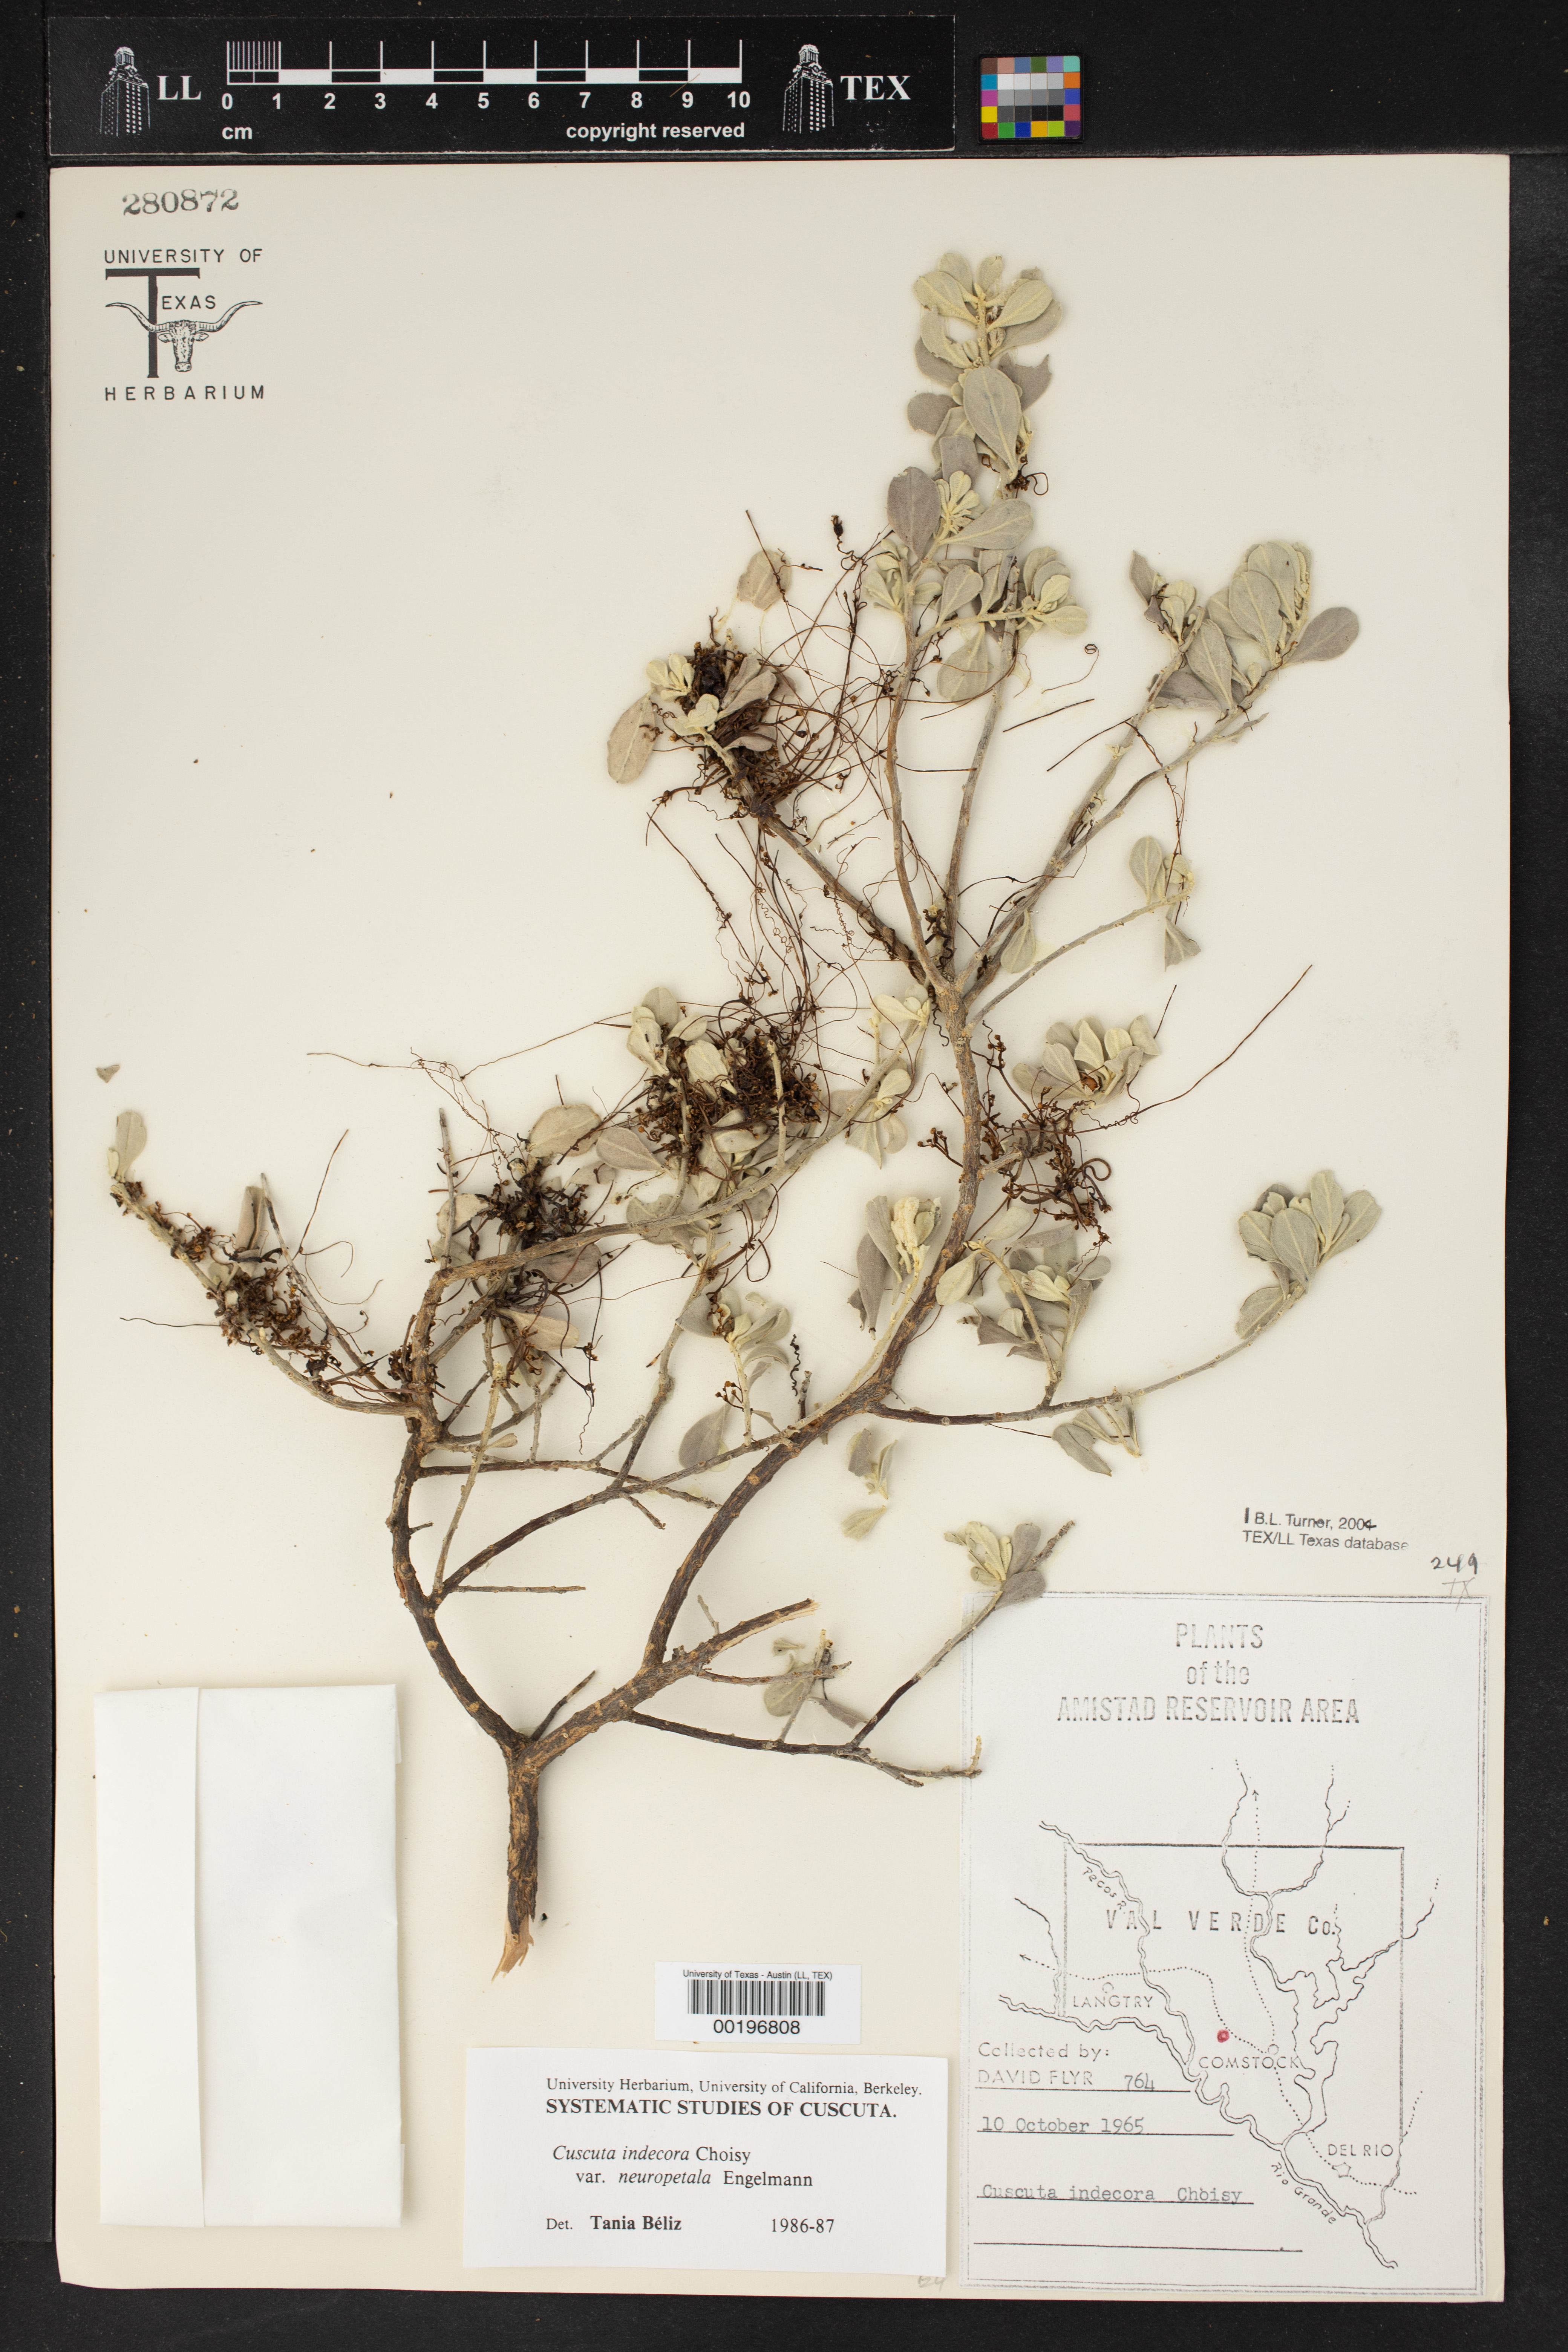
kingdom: Plantae
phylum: Tracheophyta
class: Magnoliopsida
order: Solanales
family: Convolvulaceae
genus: Cuscuta
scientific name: Cuscuta indecora
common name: Large-seed dodder
